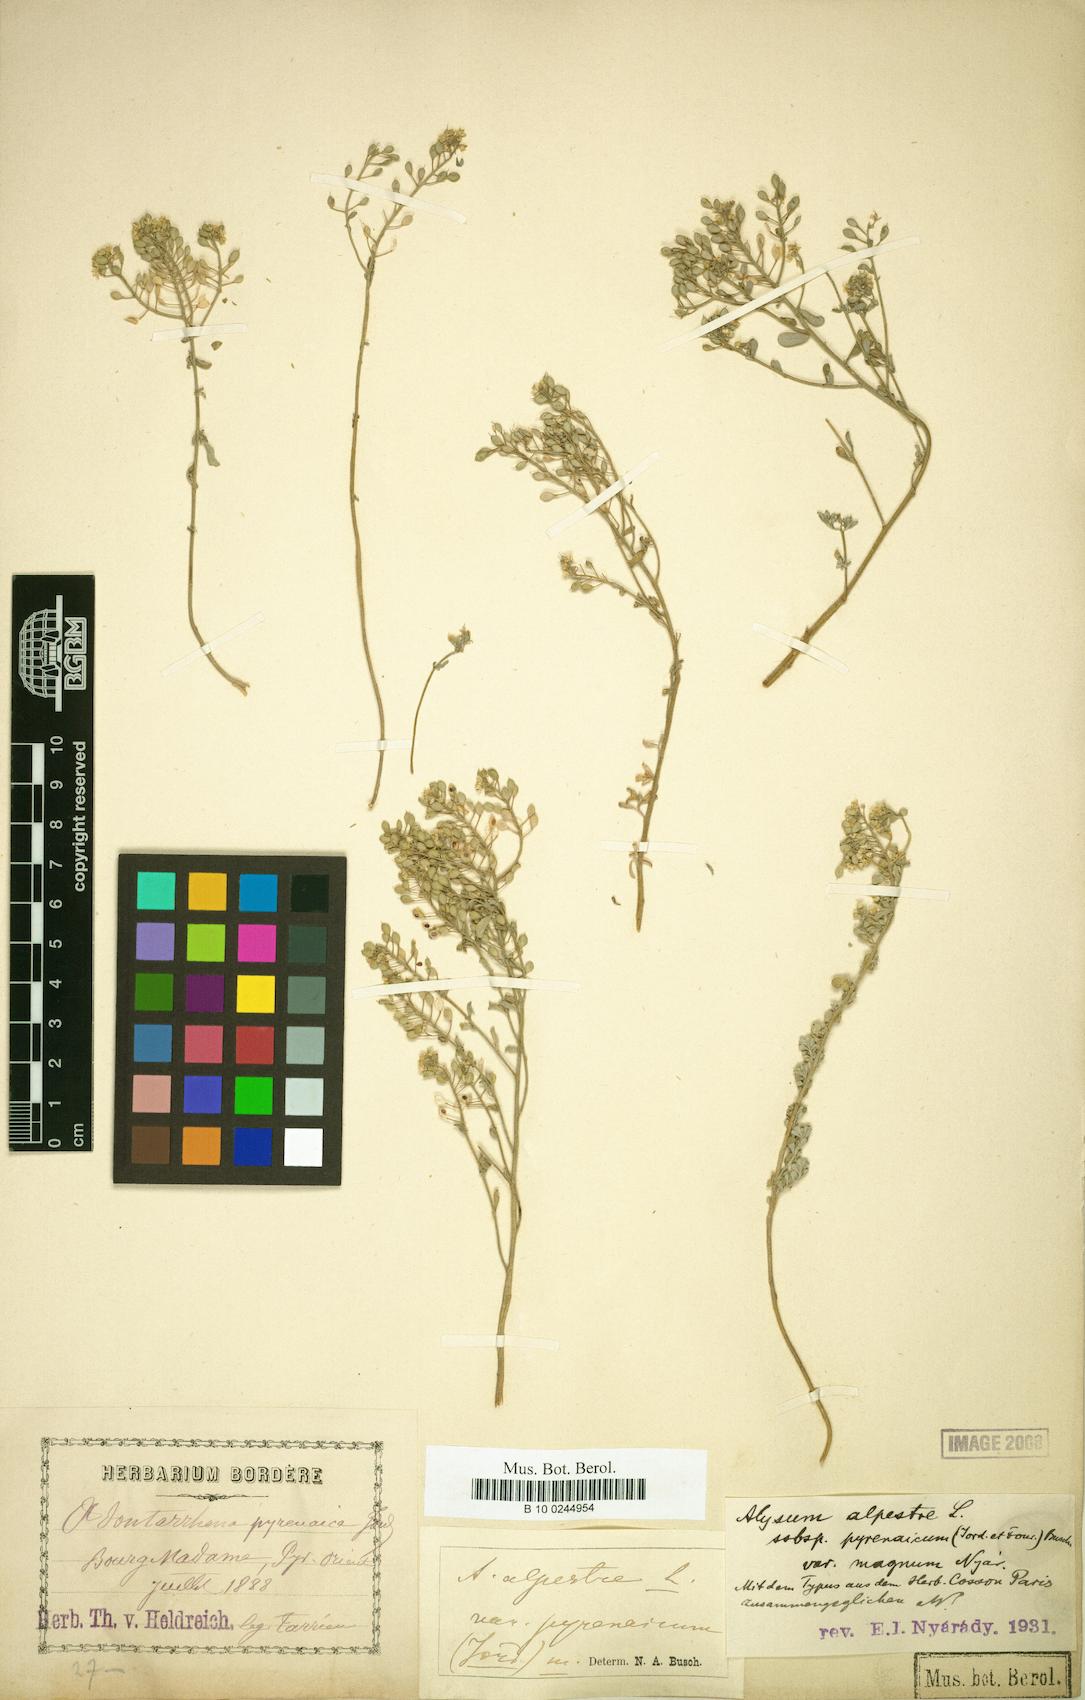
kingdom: Plantae
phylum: Tracheophyta
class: Magnoliopsida
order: Brassicales
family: Brassicaceae
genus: Odontarrhena
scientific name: Odontarrhena serpyllifolia
